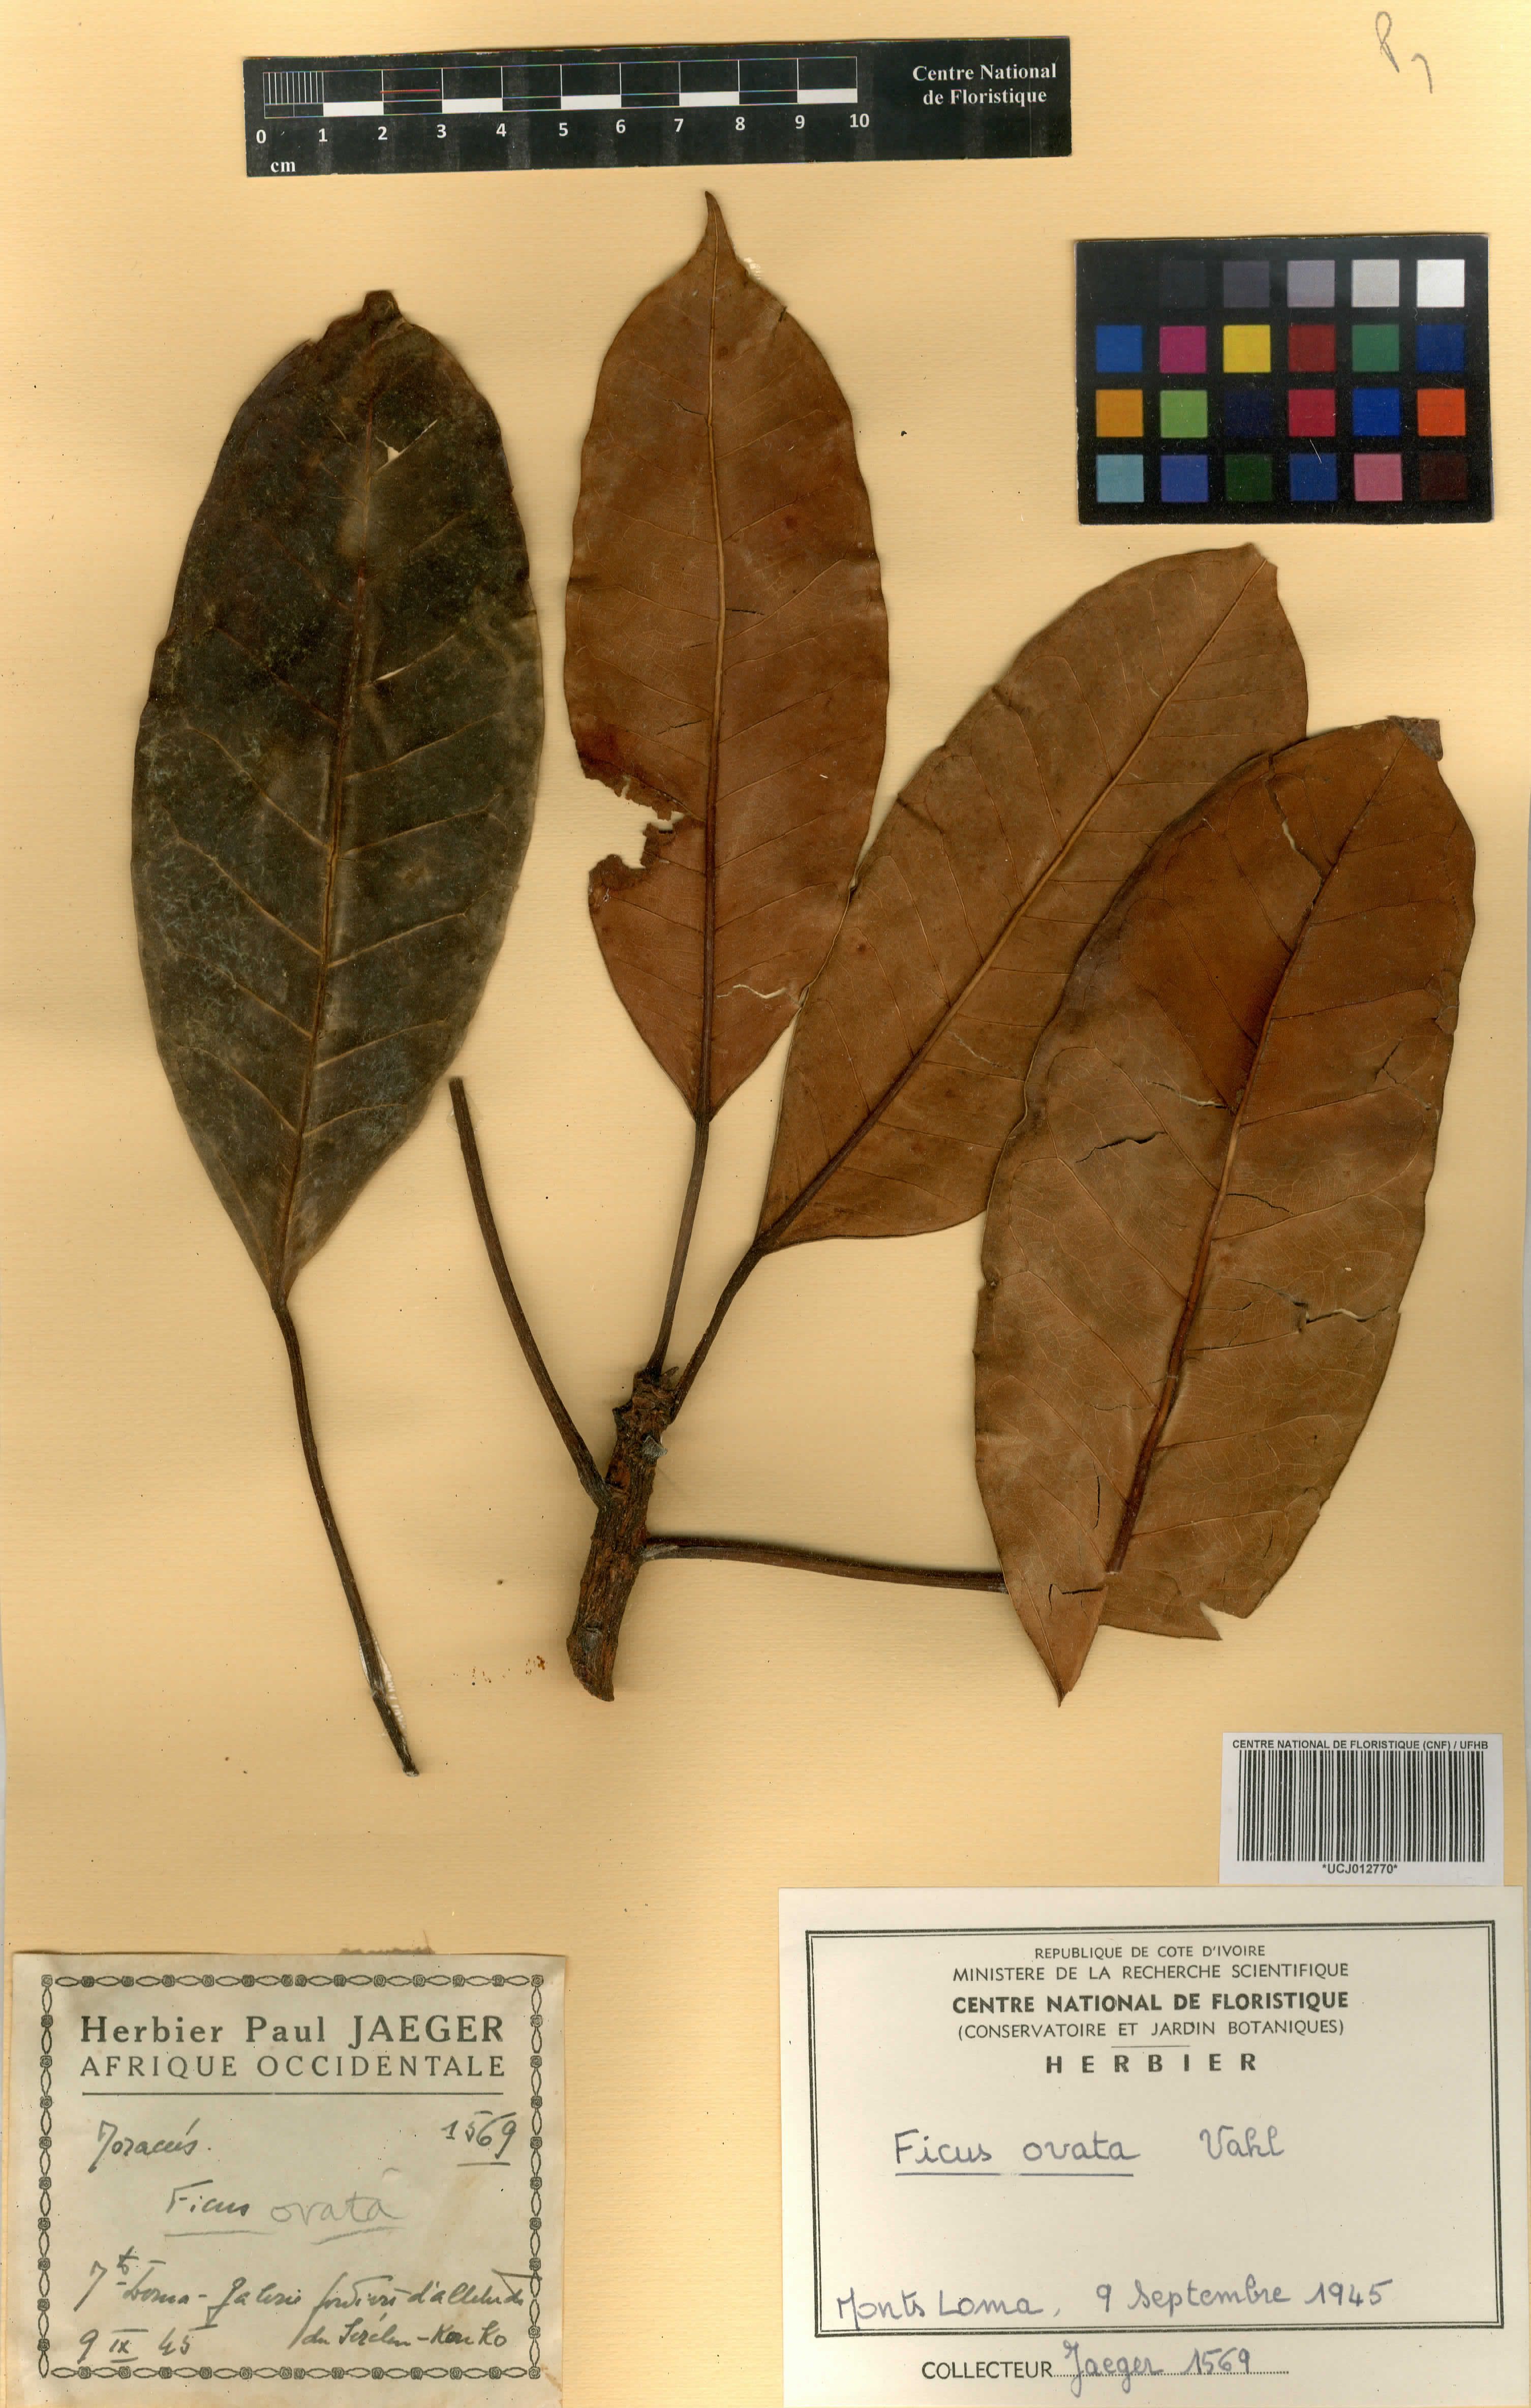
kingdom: Plantae
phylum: Tracheophyta
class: Magnoliopsida
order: Rosales
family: Moraceae
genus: Ficus
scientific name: Ficus laurifolia
